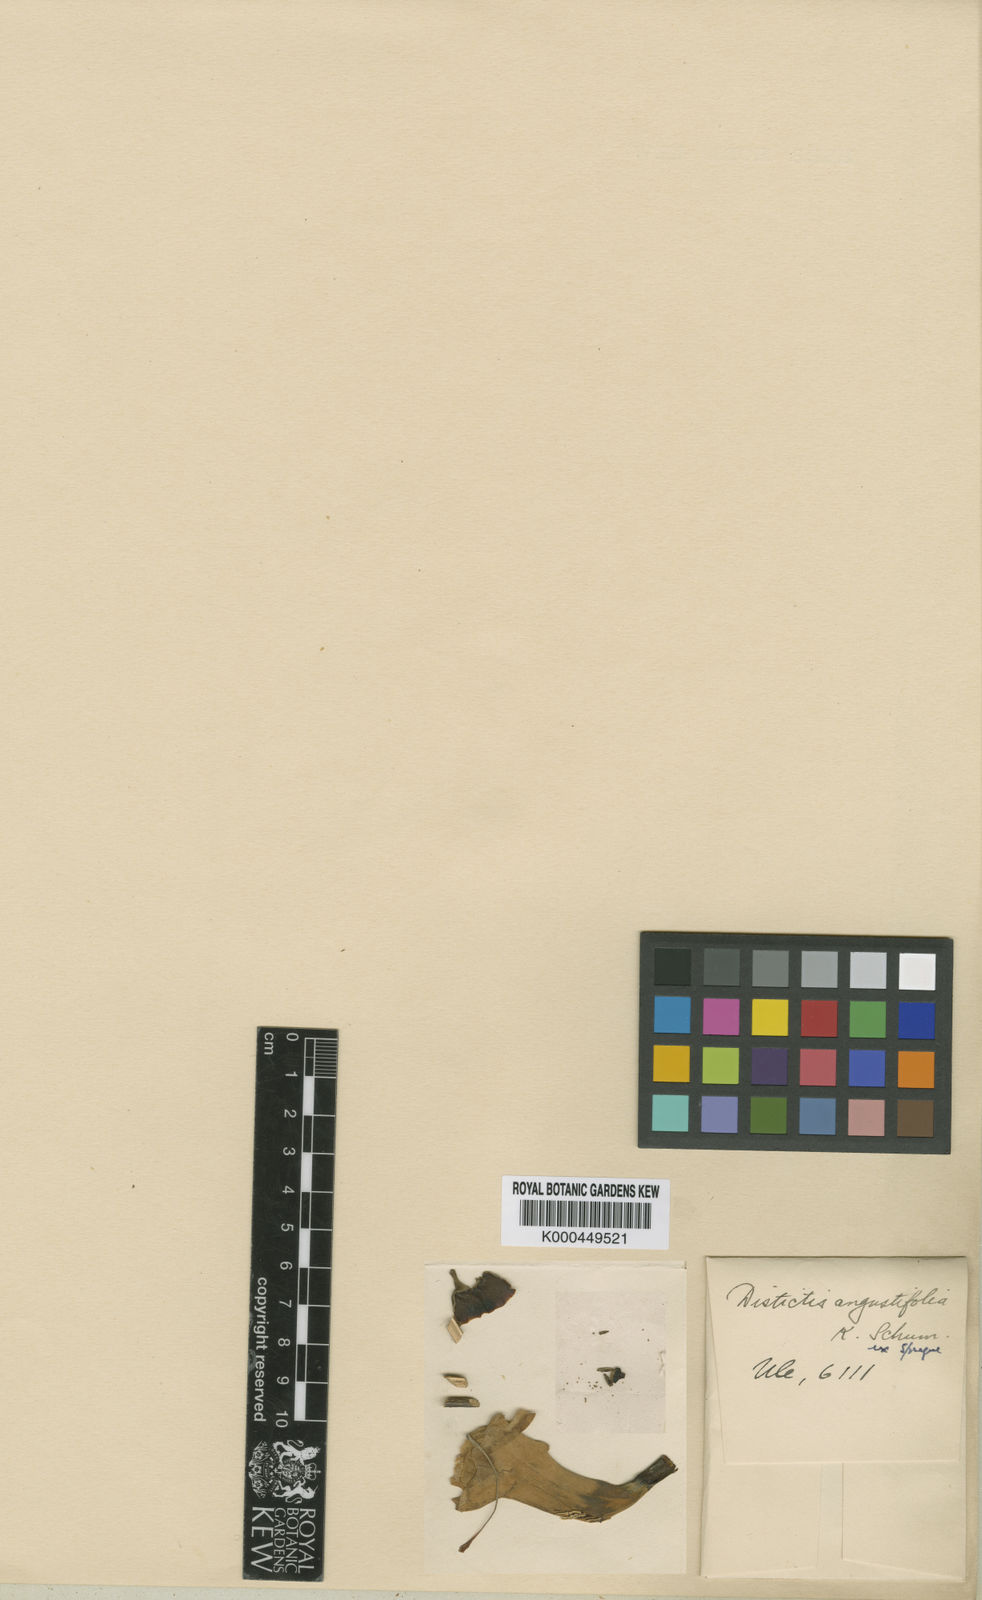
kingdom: Plantae
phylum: Tracheophyta
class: Magnoliopsida
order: Lamiales
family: Bignoniaceae
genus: Amphilophium
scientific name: Amphilophium magnoliifolium
